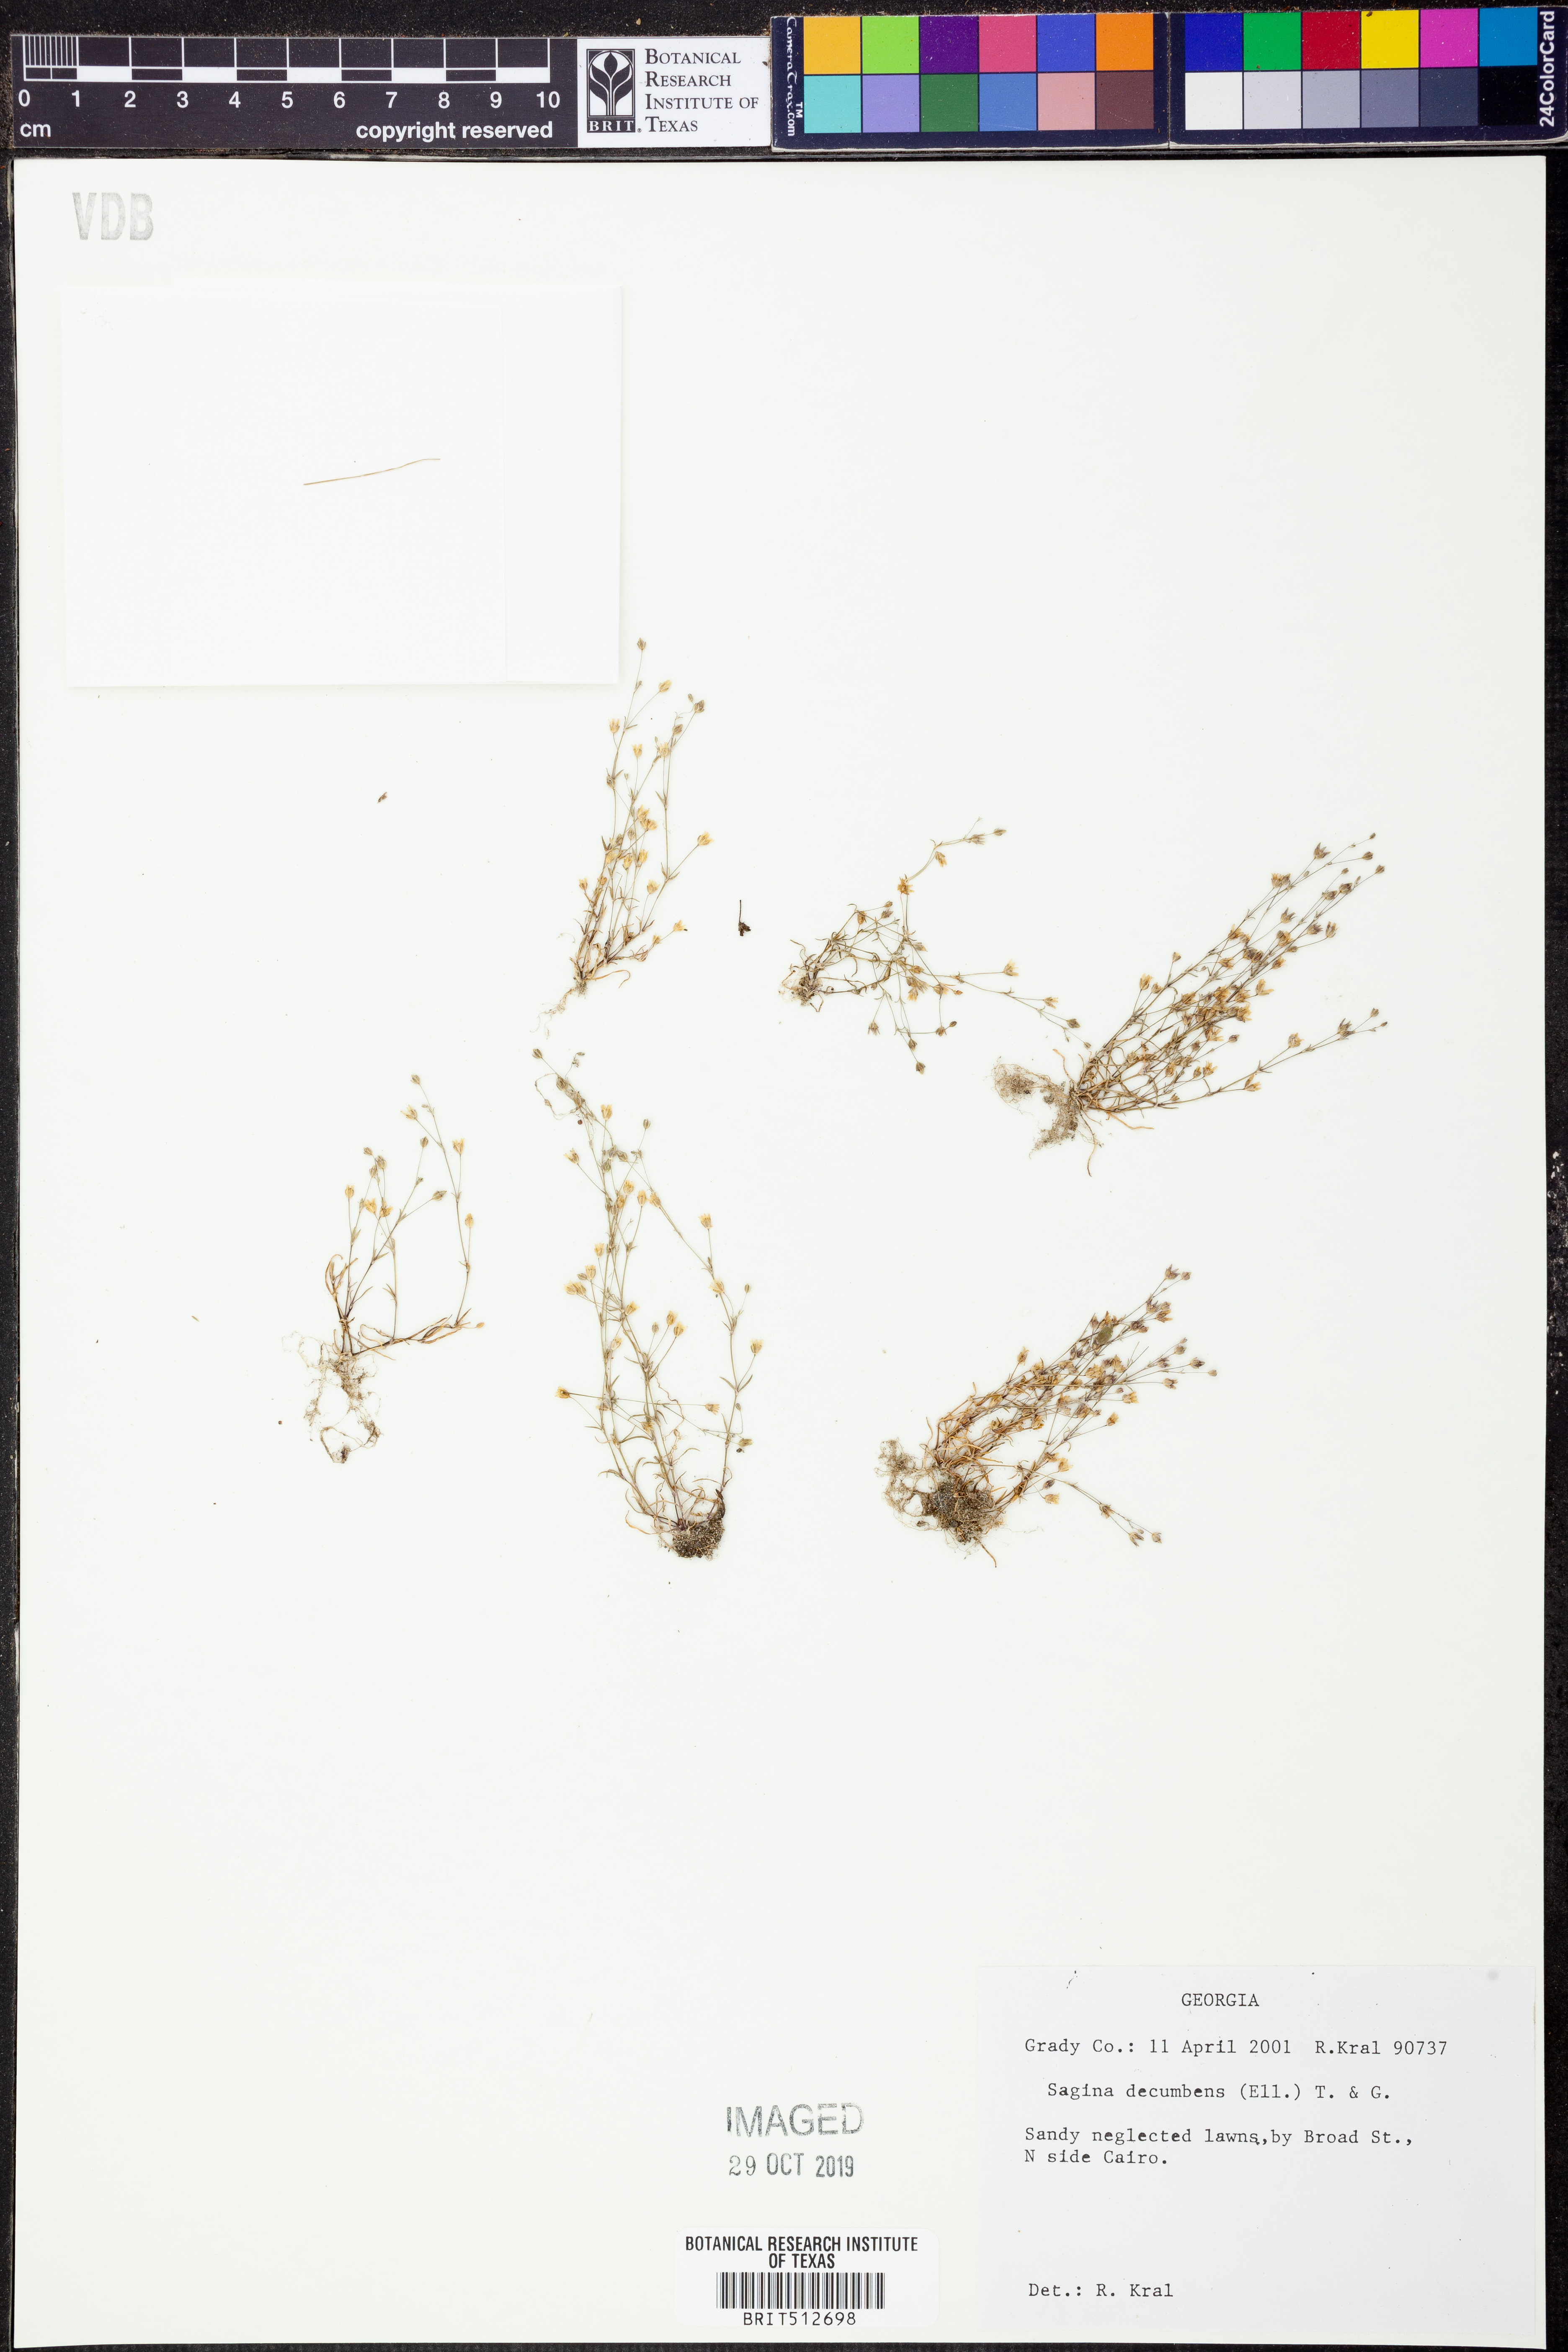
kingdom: Plantae
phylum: Tracheophyta
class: Magnoliopsida
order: Caryophyllales
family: Caryophyllaceae
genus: Sagina
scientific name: Sagina decumbens
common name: Decumbent pearlwort
